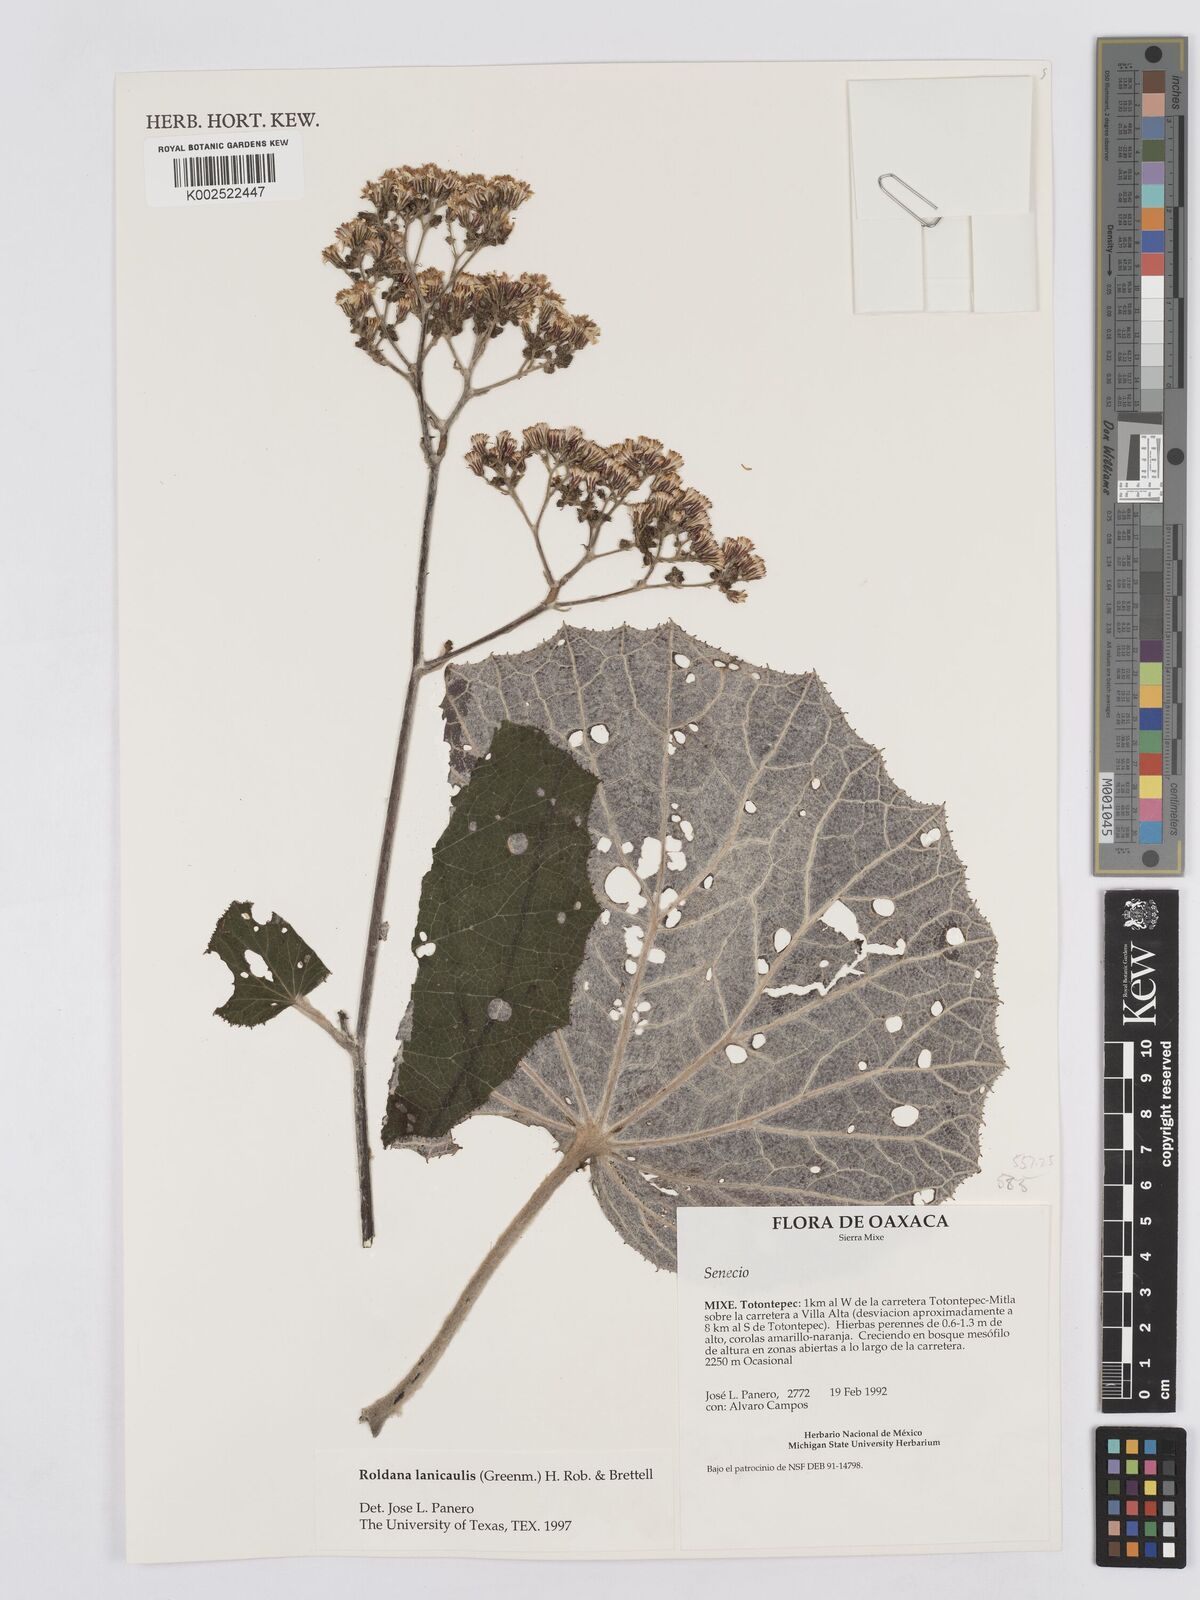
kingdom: Plantae
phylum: Tracheophyta
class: Magnoliopsida
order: Asterales
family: Asteraceae
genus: Roldana
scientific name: Roldana lanicaulis
